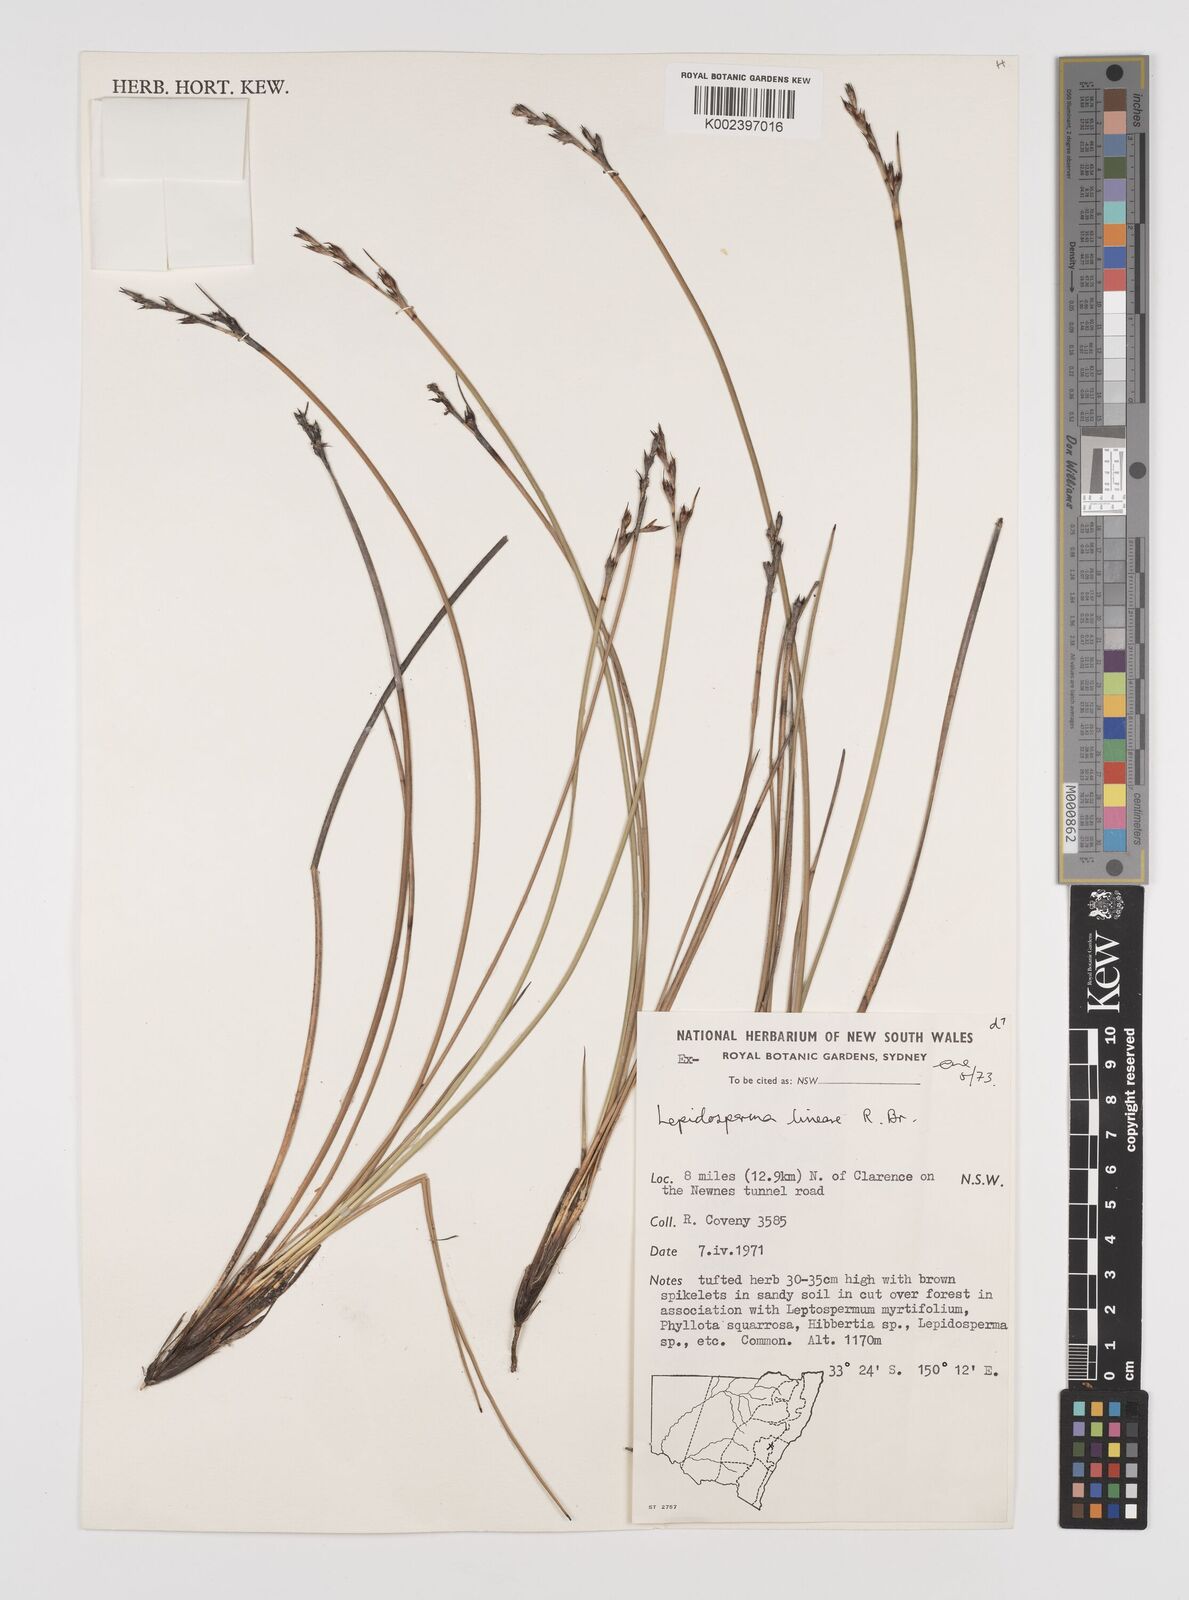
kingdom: Plantae
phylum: Tracheophyta
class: Liliopsida
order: Poales
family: Cyperaceae
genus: Lepidosperma
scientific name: Lepidosperma lineare
